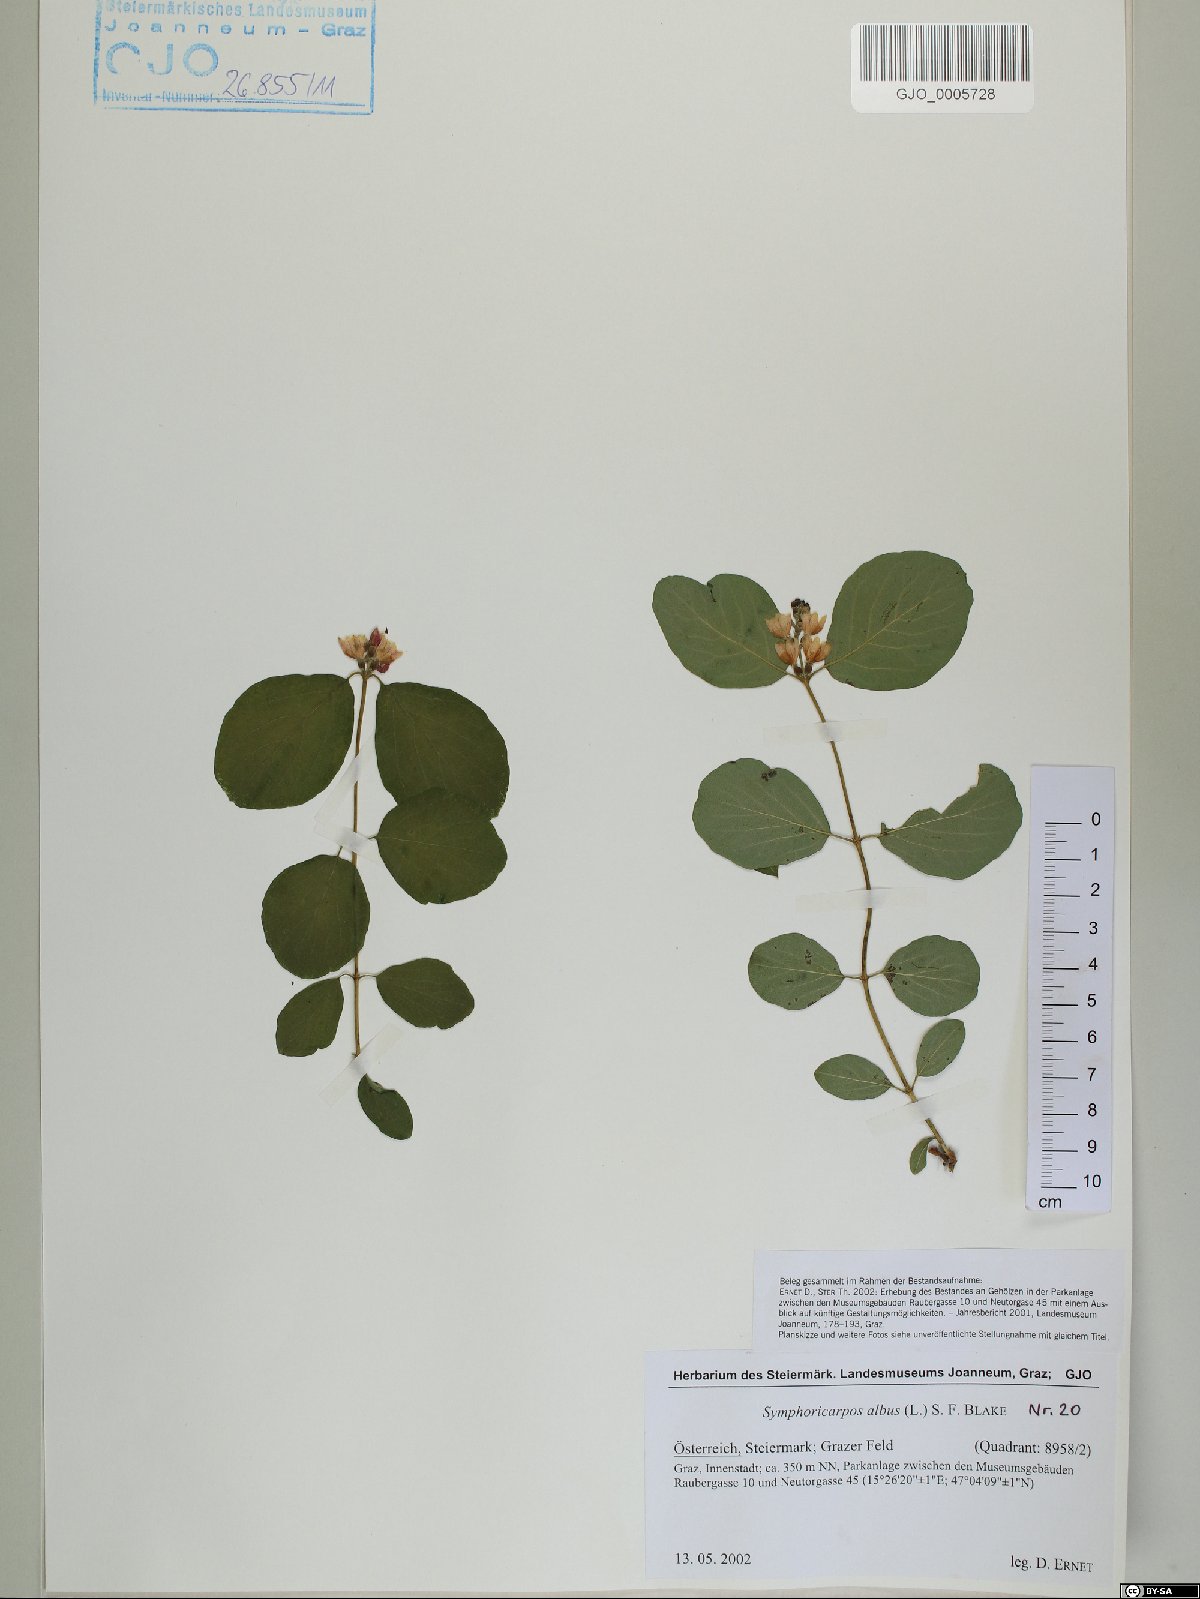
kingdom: Plantae
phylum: Tracheophyta
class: Magnoliopsida
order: Dipsacales
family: Caprifoliaceae
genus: Symphoricarpos
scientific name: Symphoricarpos albus
